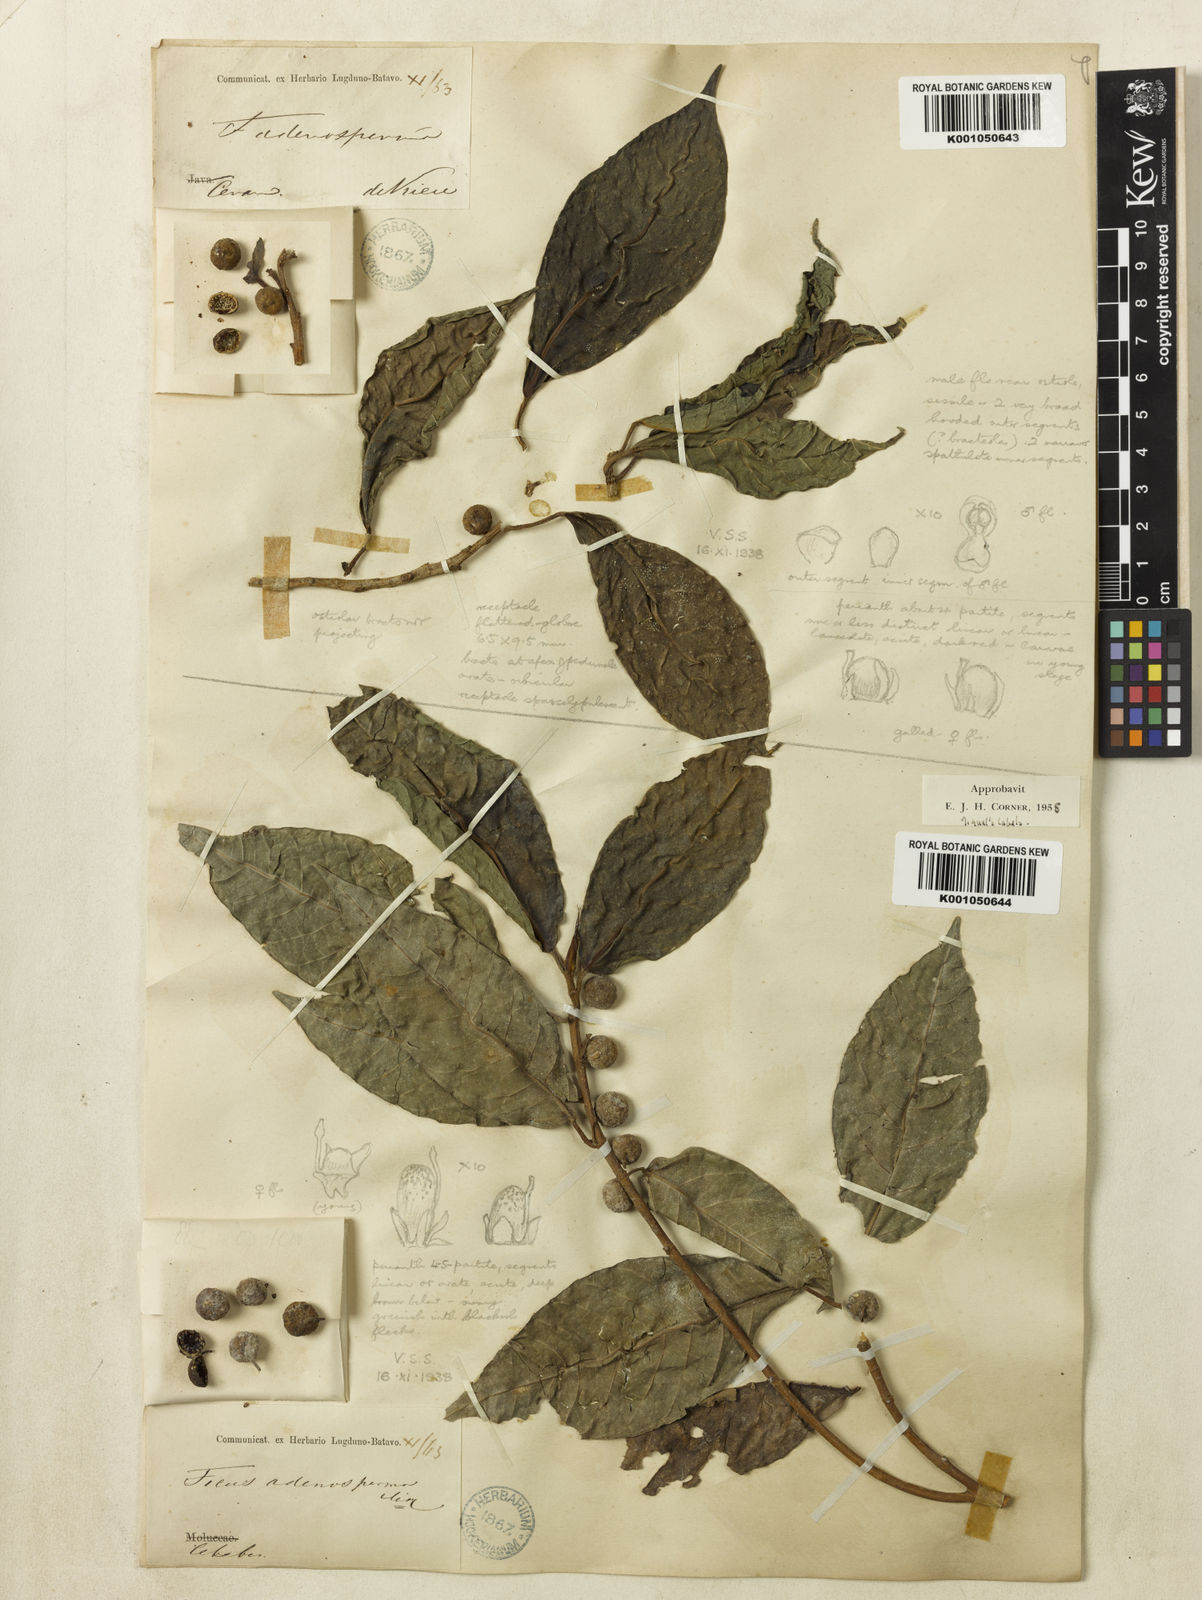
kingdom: Plantae
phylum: Tracheophyta
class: Magnoliopsida
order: Rosales
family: Moraceae
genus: Ficus
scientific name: Ficus adenosperma
